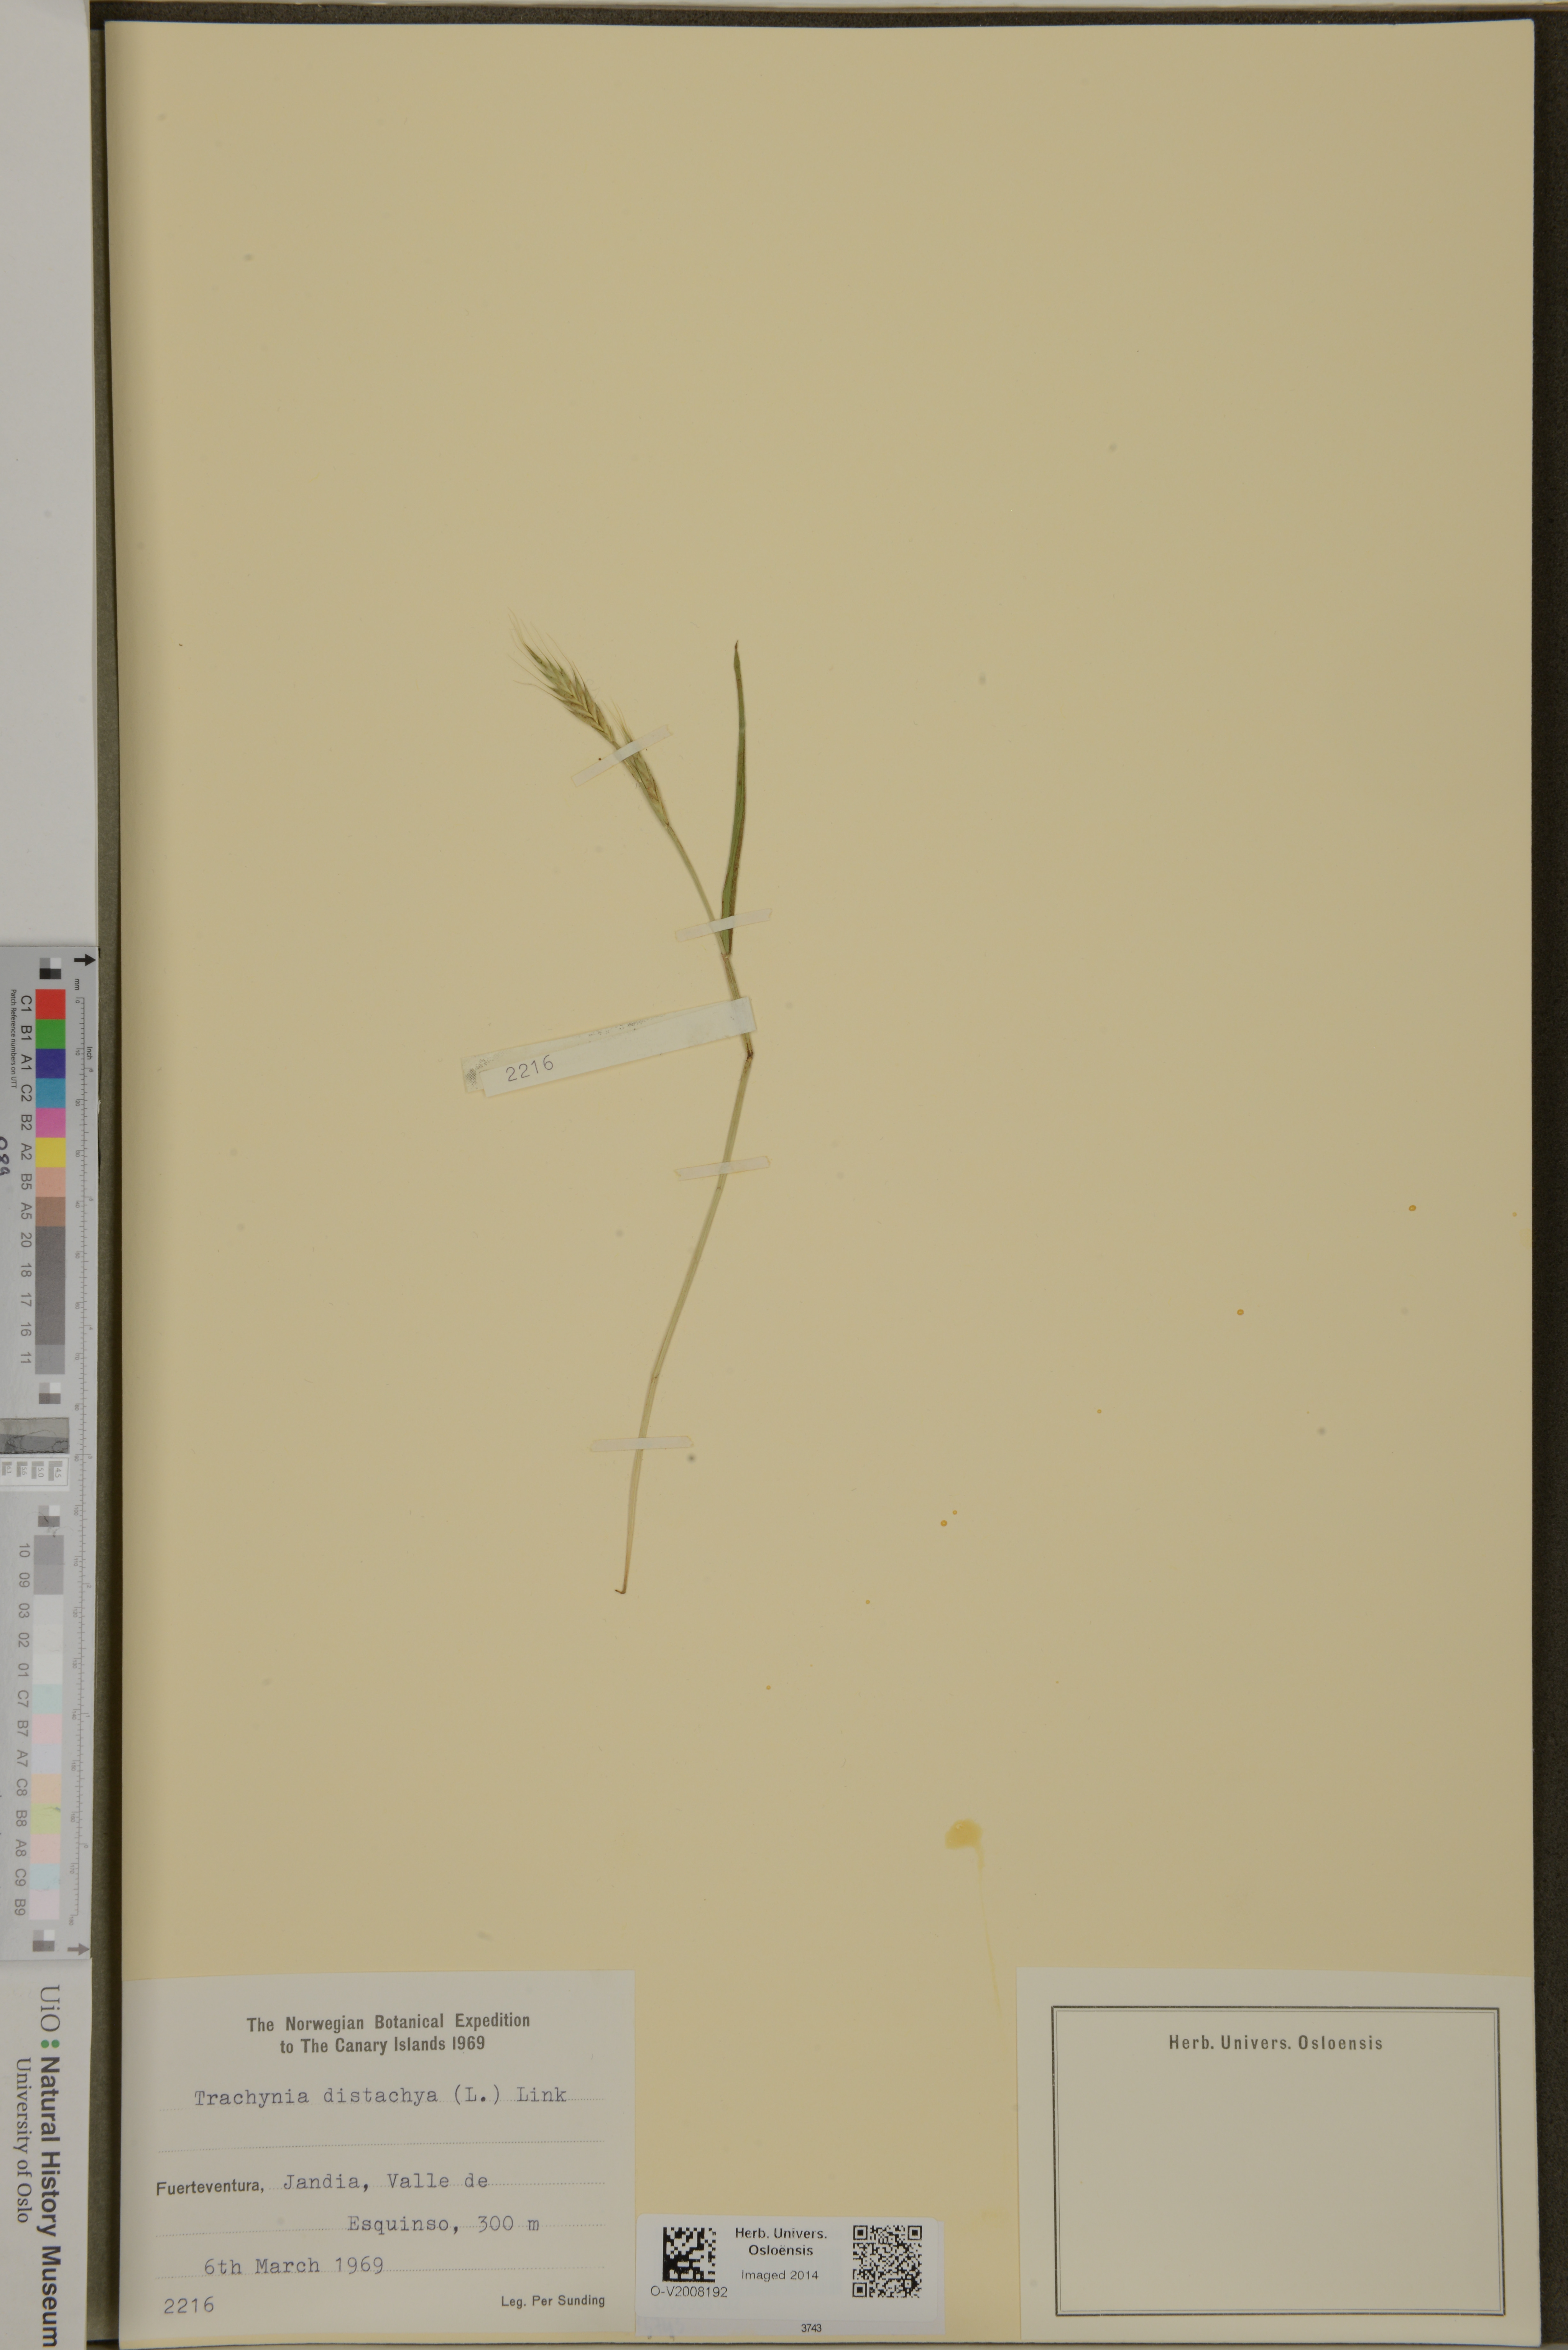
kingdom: Plantae
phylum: Tracheophyta
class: Liliopsida
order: Poales
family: Poaceae
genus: Brachypodium
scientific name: Brachypodium distachyon
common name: Stiff brome
